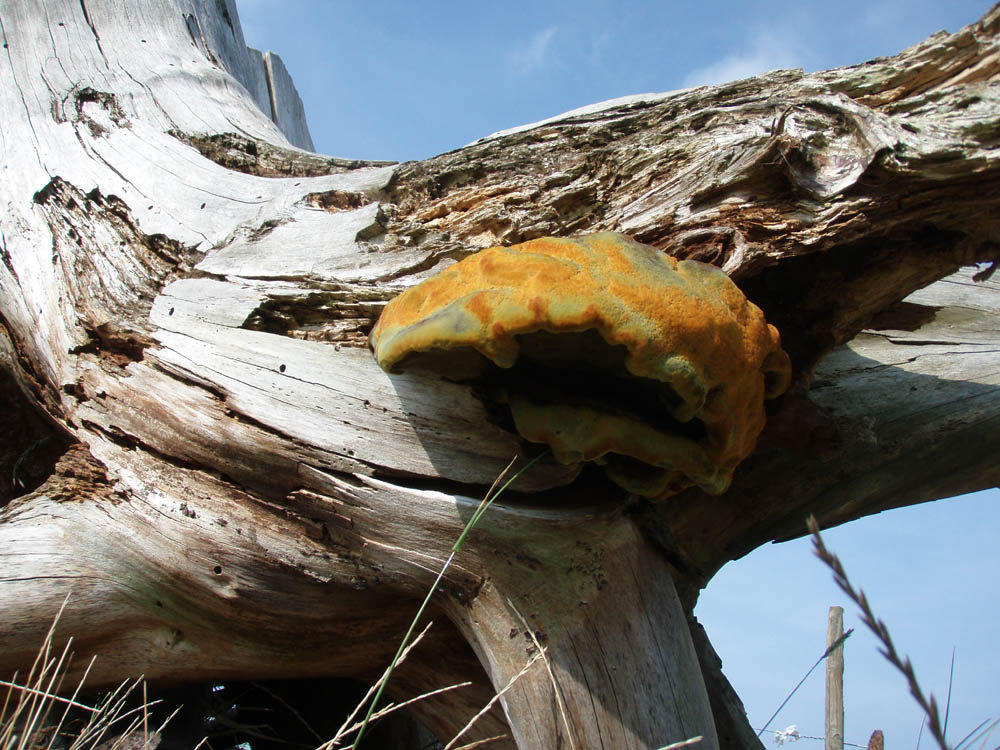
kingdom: Fungi
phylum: Basidiomycota
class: Agaricomycetes
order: Polyporales
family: Laetiporaceae
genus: Phaeolus
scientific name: Phaeolus schweinitzii
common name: brunporesvamp
